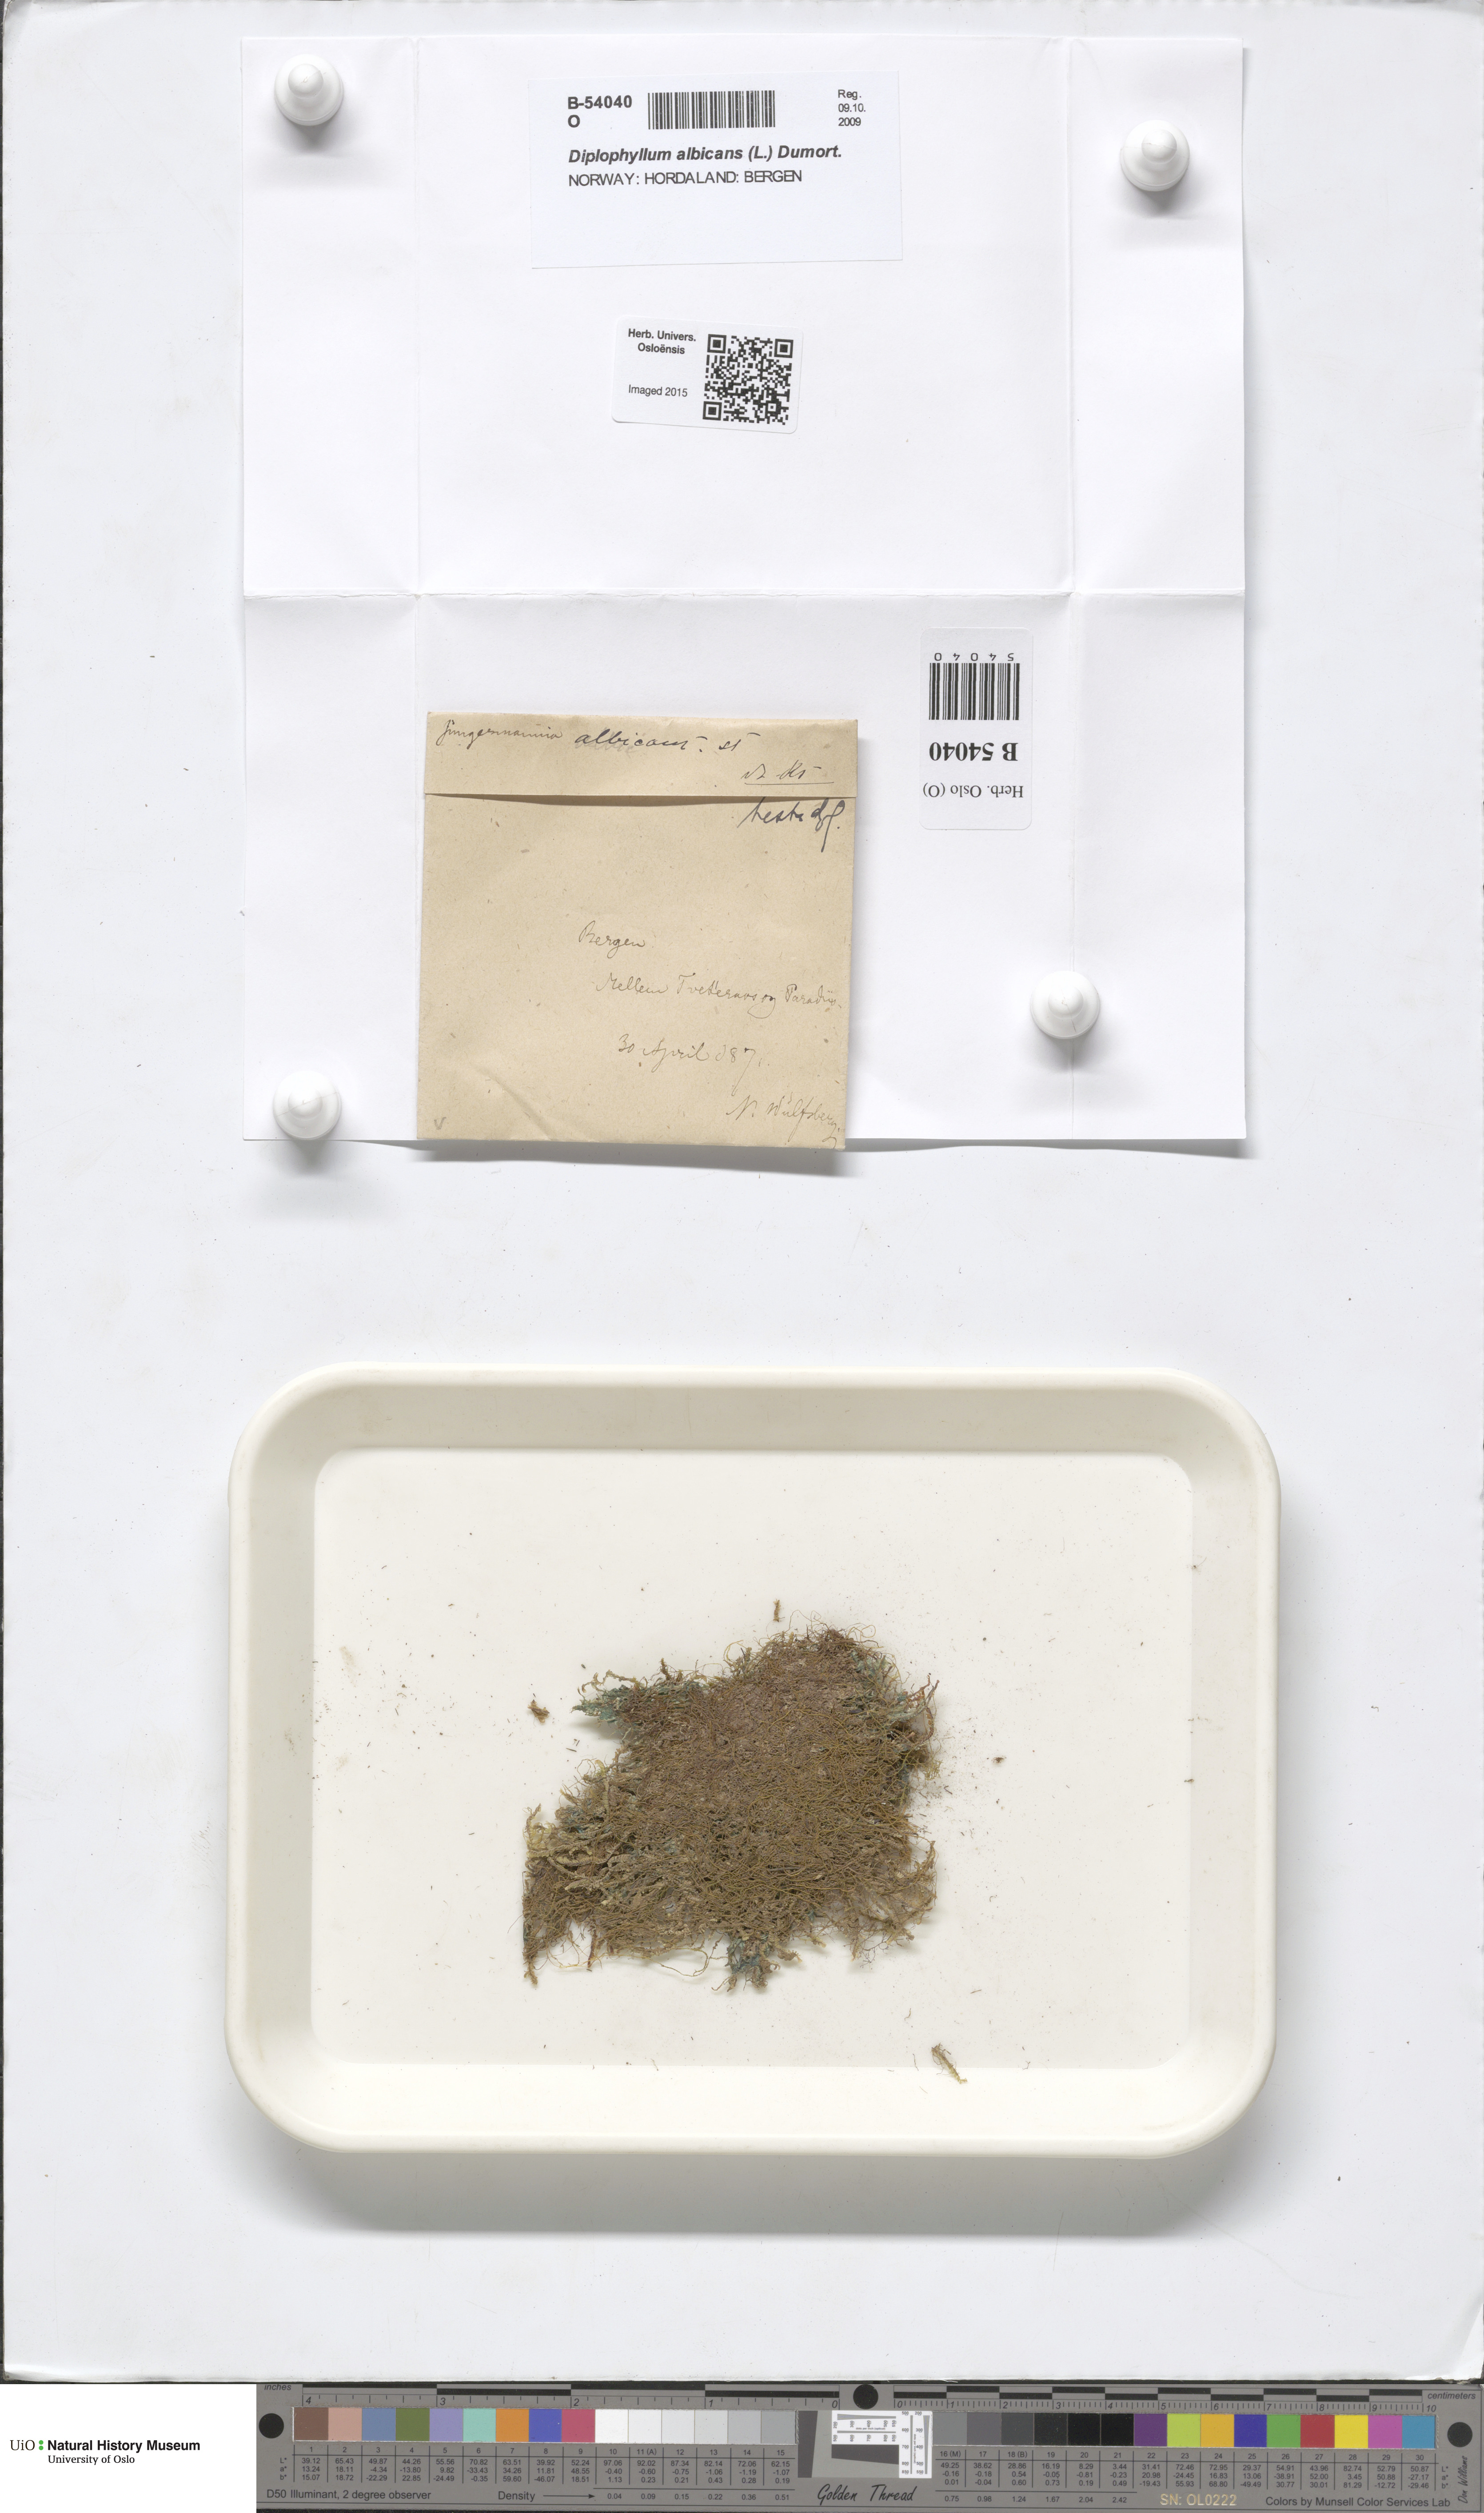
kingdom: Plantae
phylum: Marchantiophyta
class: Jungermanniopsida
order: Jungermanniales
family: Scapaniaceae
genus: Diplophyllum
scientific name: Diplophyllum albicans
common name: White earwort
